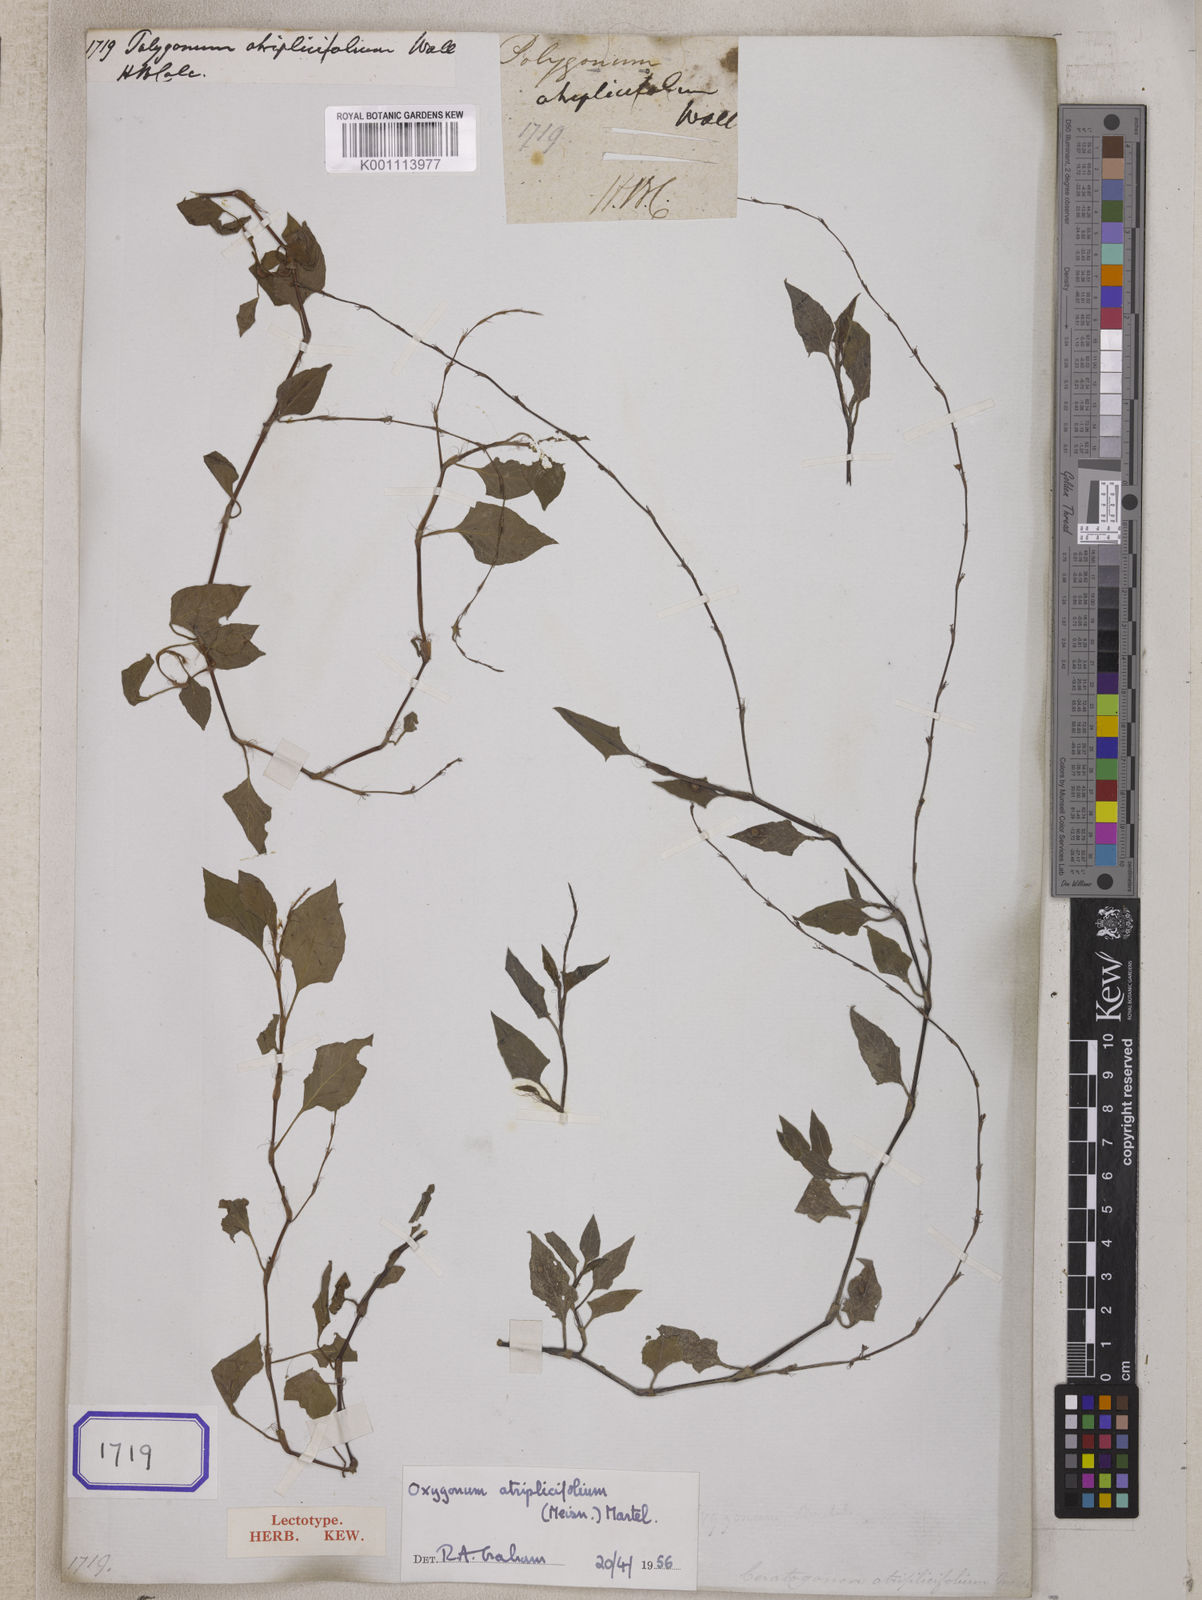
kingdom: Plantae
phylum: Tracheophyta
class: Magnoliopsida
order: Caryophyllales
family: Polygonaceae
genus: Oxygonum
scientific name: Oxygonum atriplicifolium
